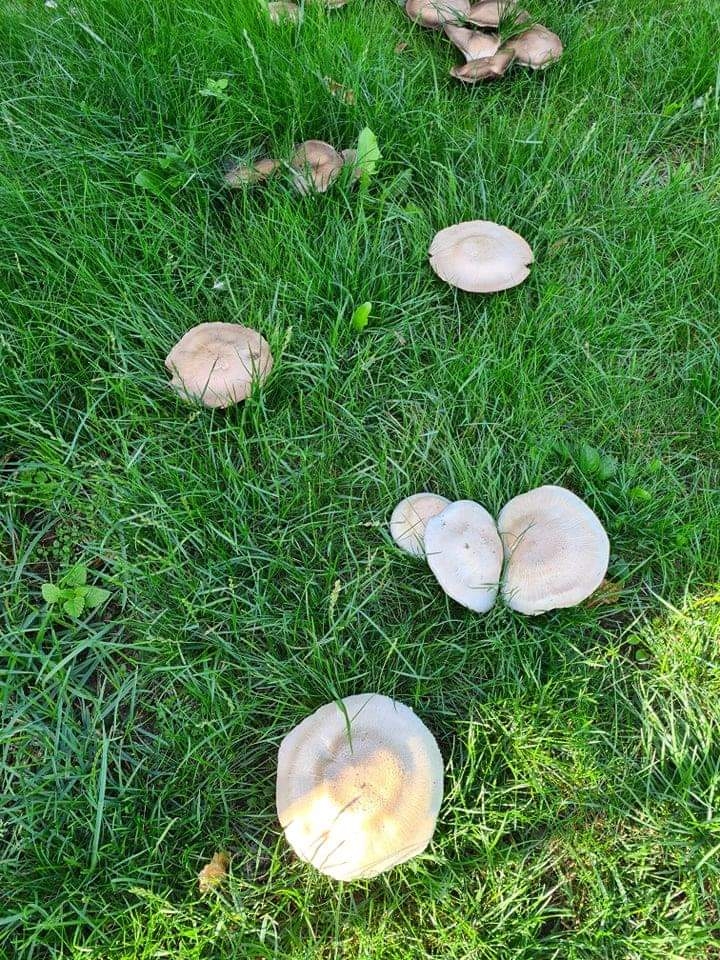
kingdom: Fungi
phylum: Basidiomycota
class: Agaricomycetes
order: Agaricales
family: Agaricaceae
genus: Agaricus
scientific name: Agaricus
